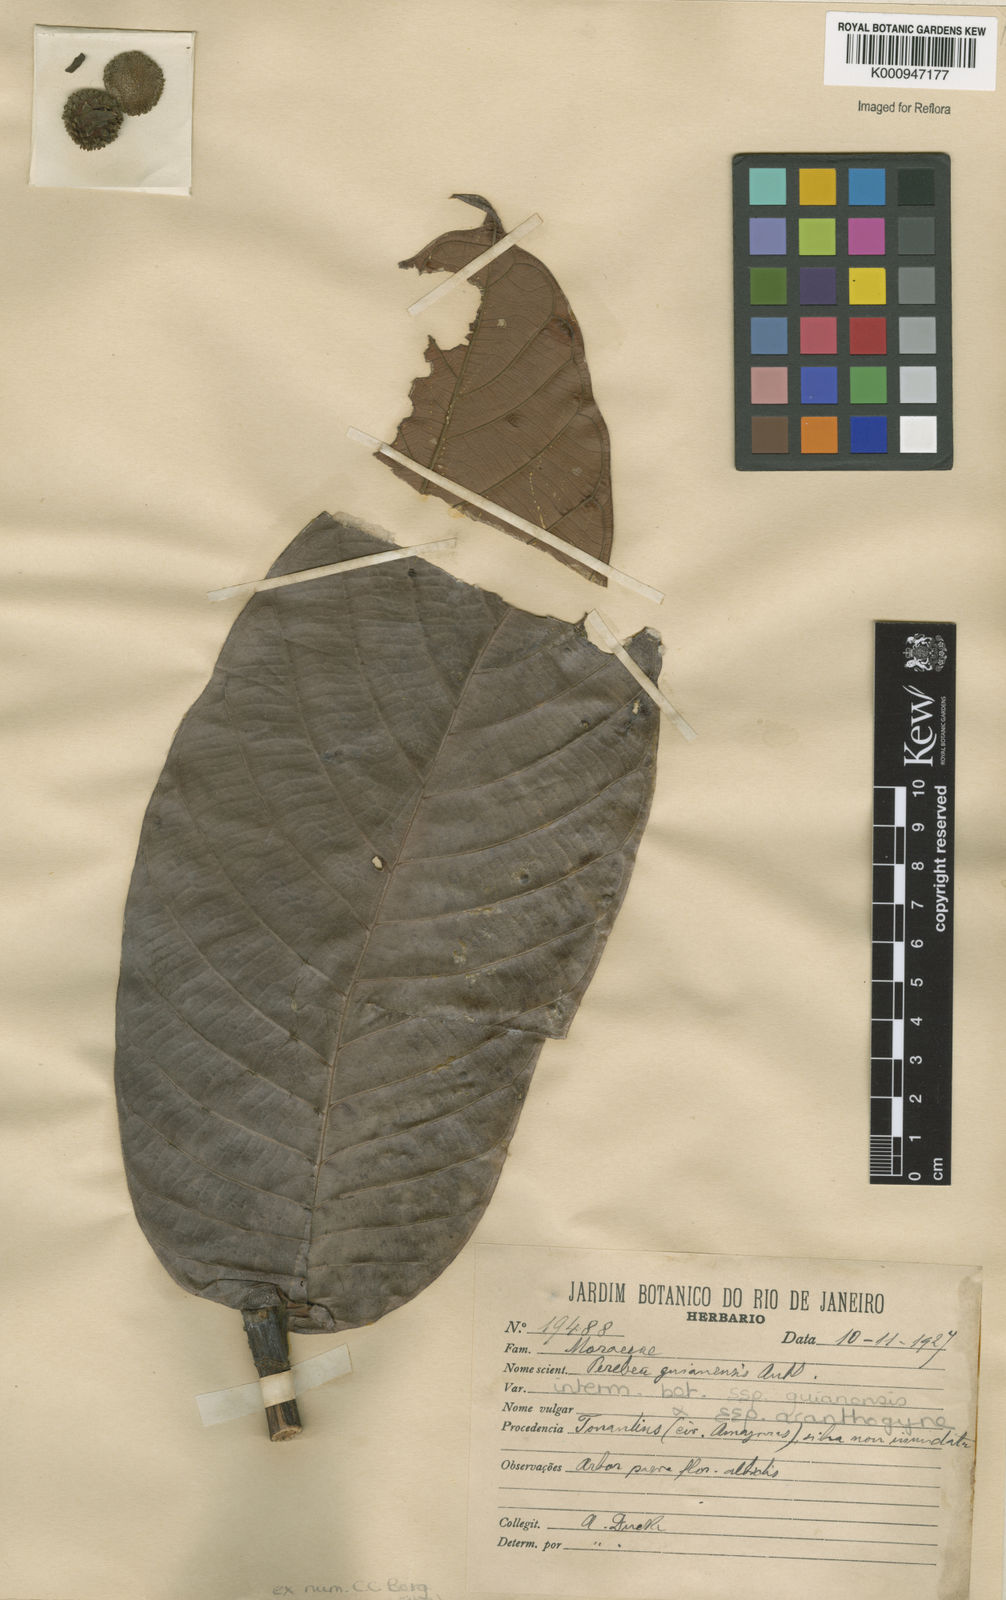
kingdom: Plantae
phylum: Tracheophyta
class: Magnoliopsida
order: Rosales
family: Moraceae
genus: Perebea
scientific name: Perebea
